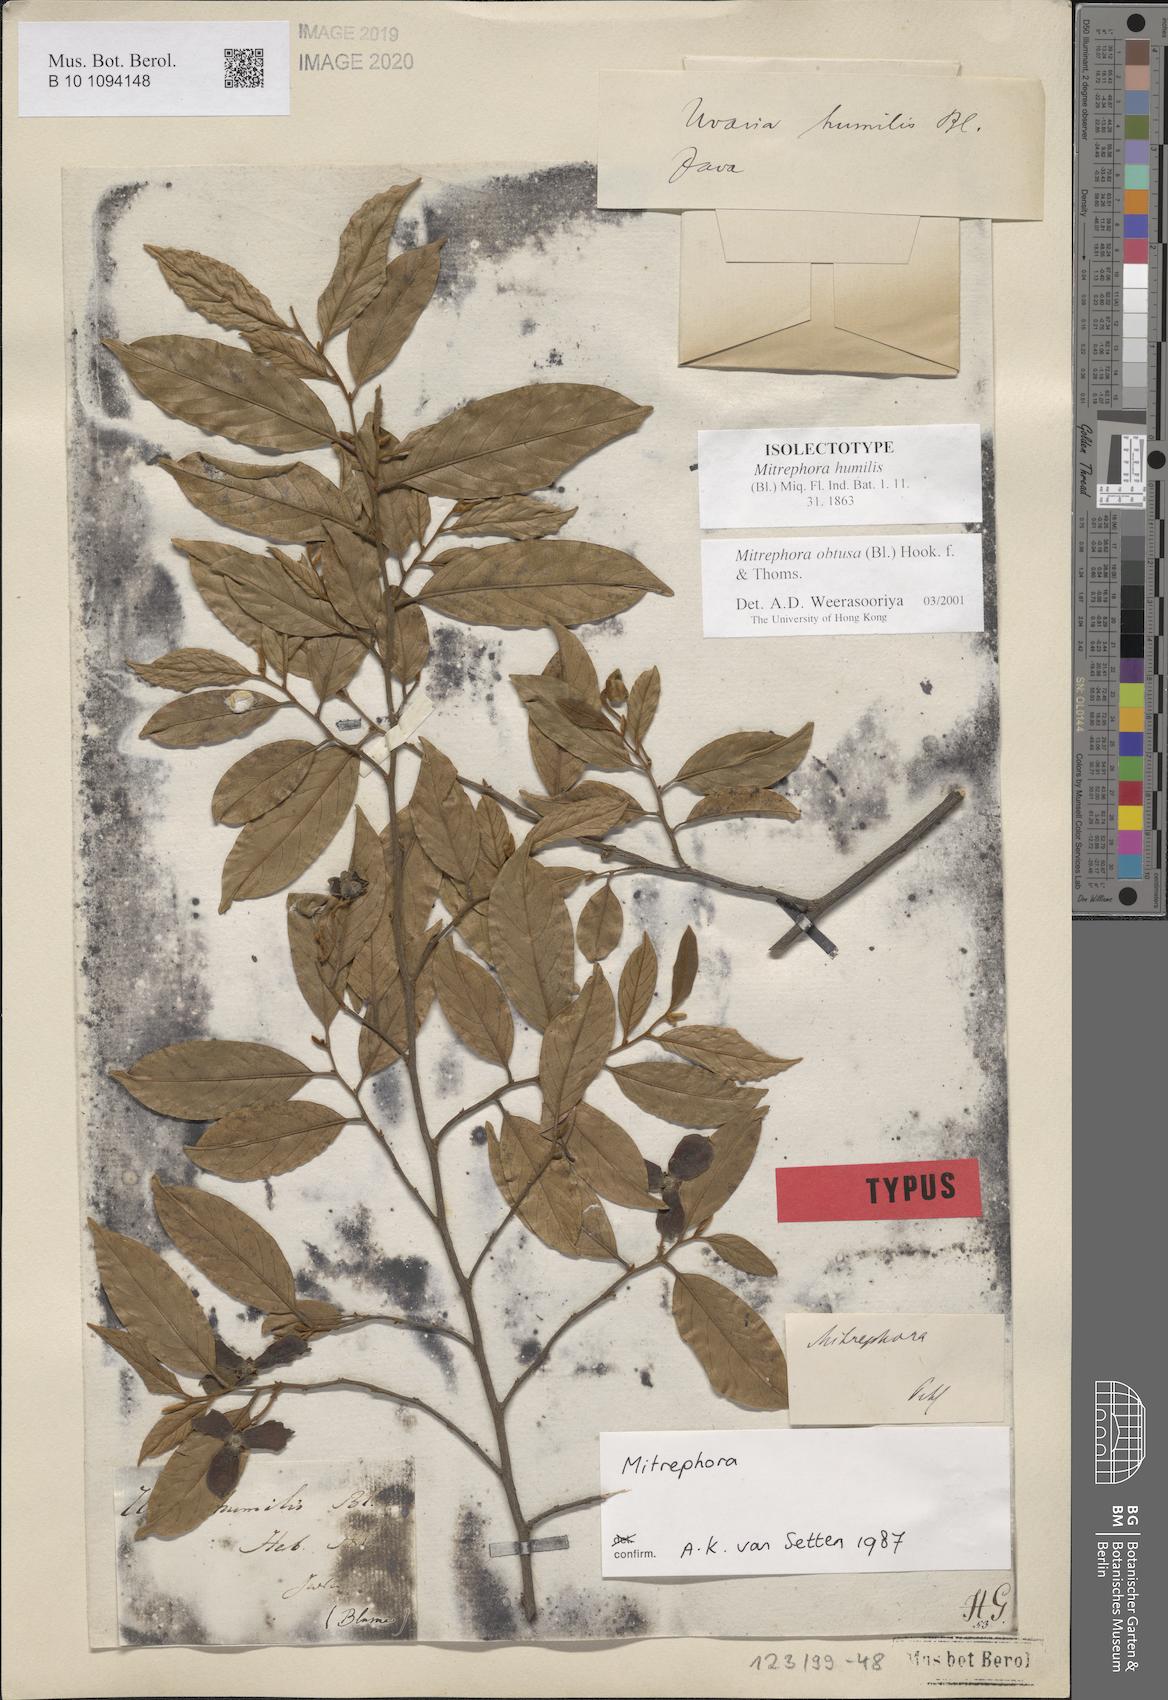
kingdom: Plantae
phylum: Tracheophyta
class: Magnoliopsida
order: Magnoliales
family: Annonaceae
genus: Mitrephora
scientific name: Mitrephora obtusa
